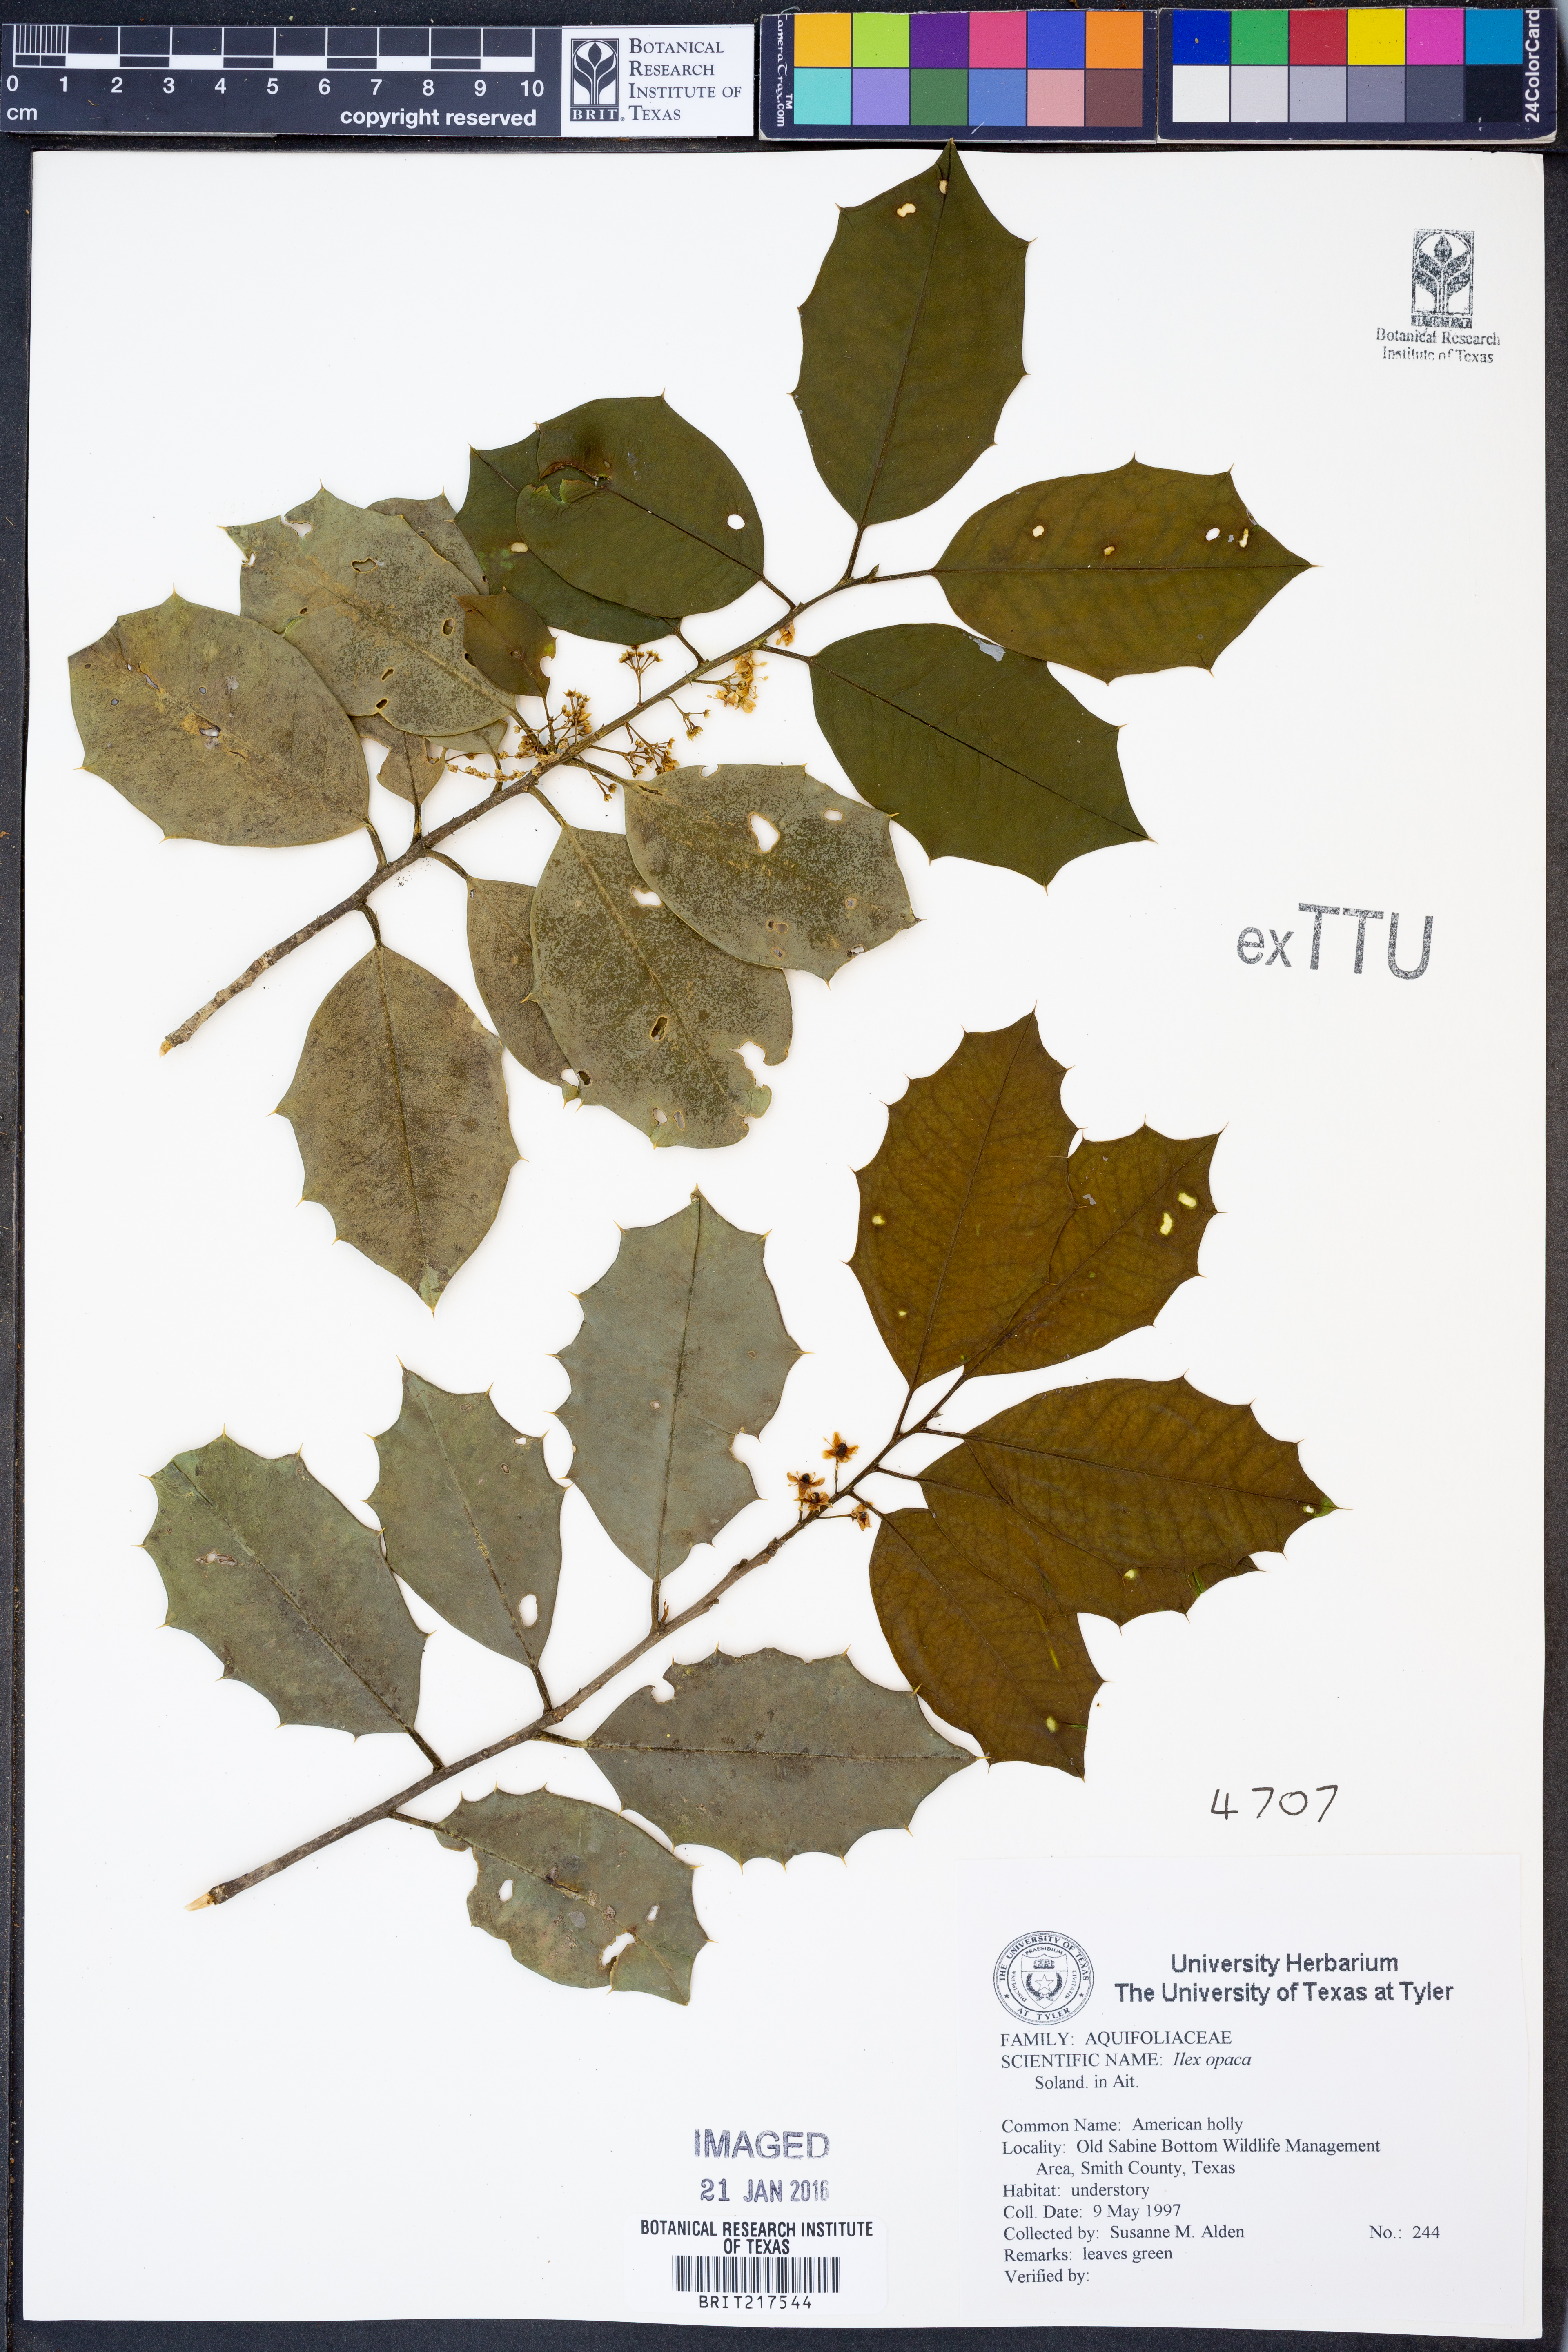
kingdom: Plantae
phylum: Tracheophyta
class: Magnoliopsida
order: Aquifoliales
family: Aquifoliaceae
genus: Ilex
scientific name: Ilex opaca
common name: American holly
